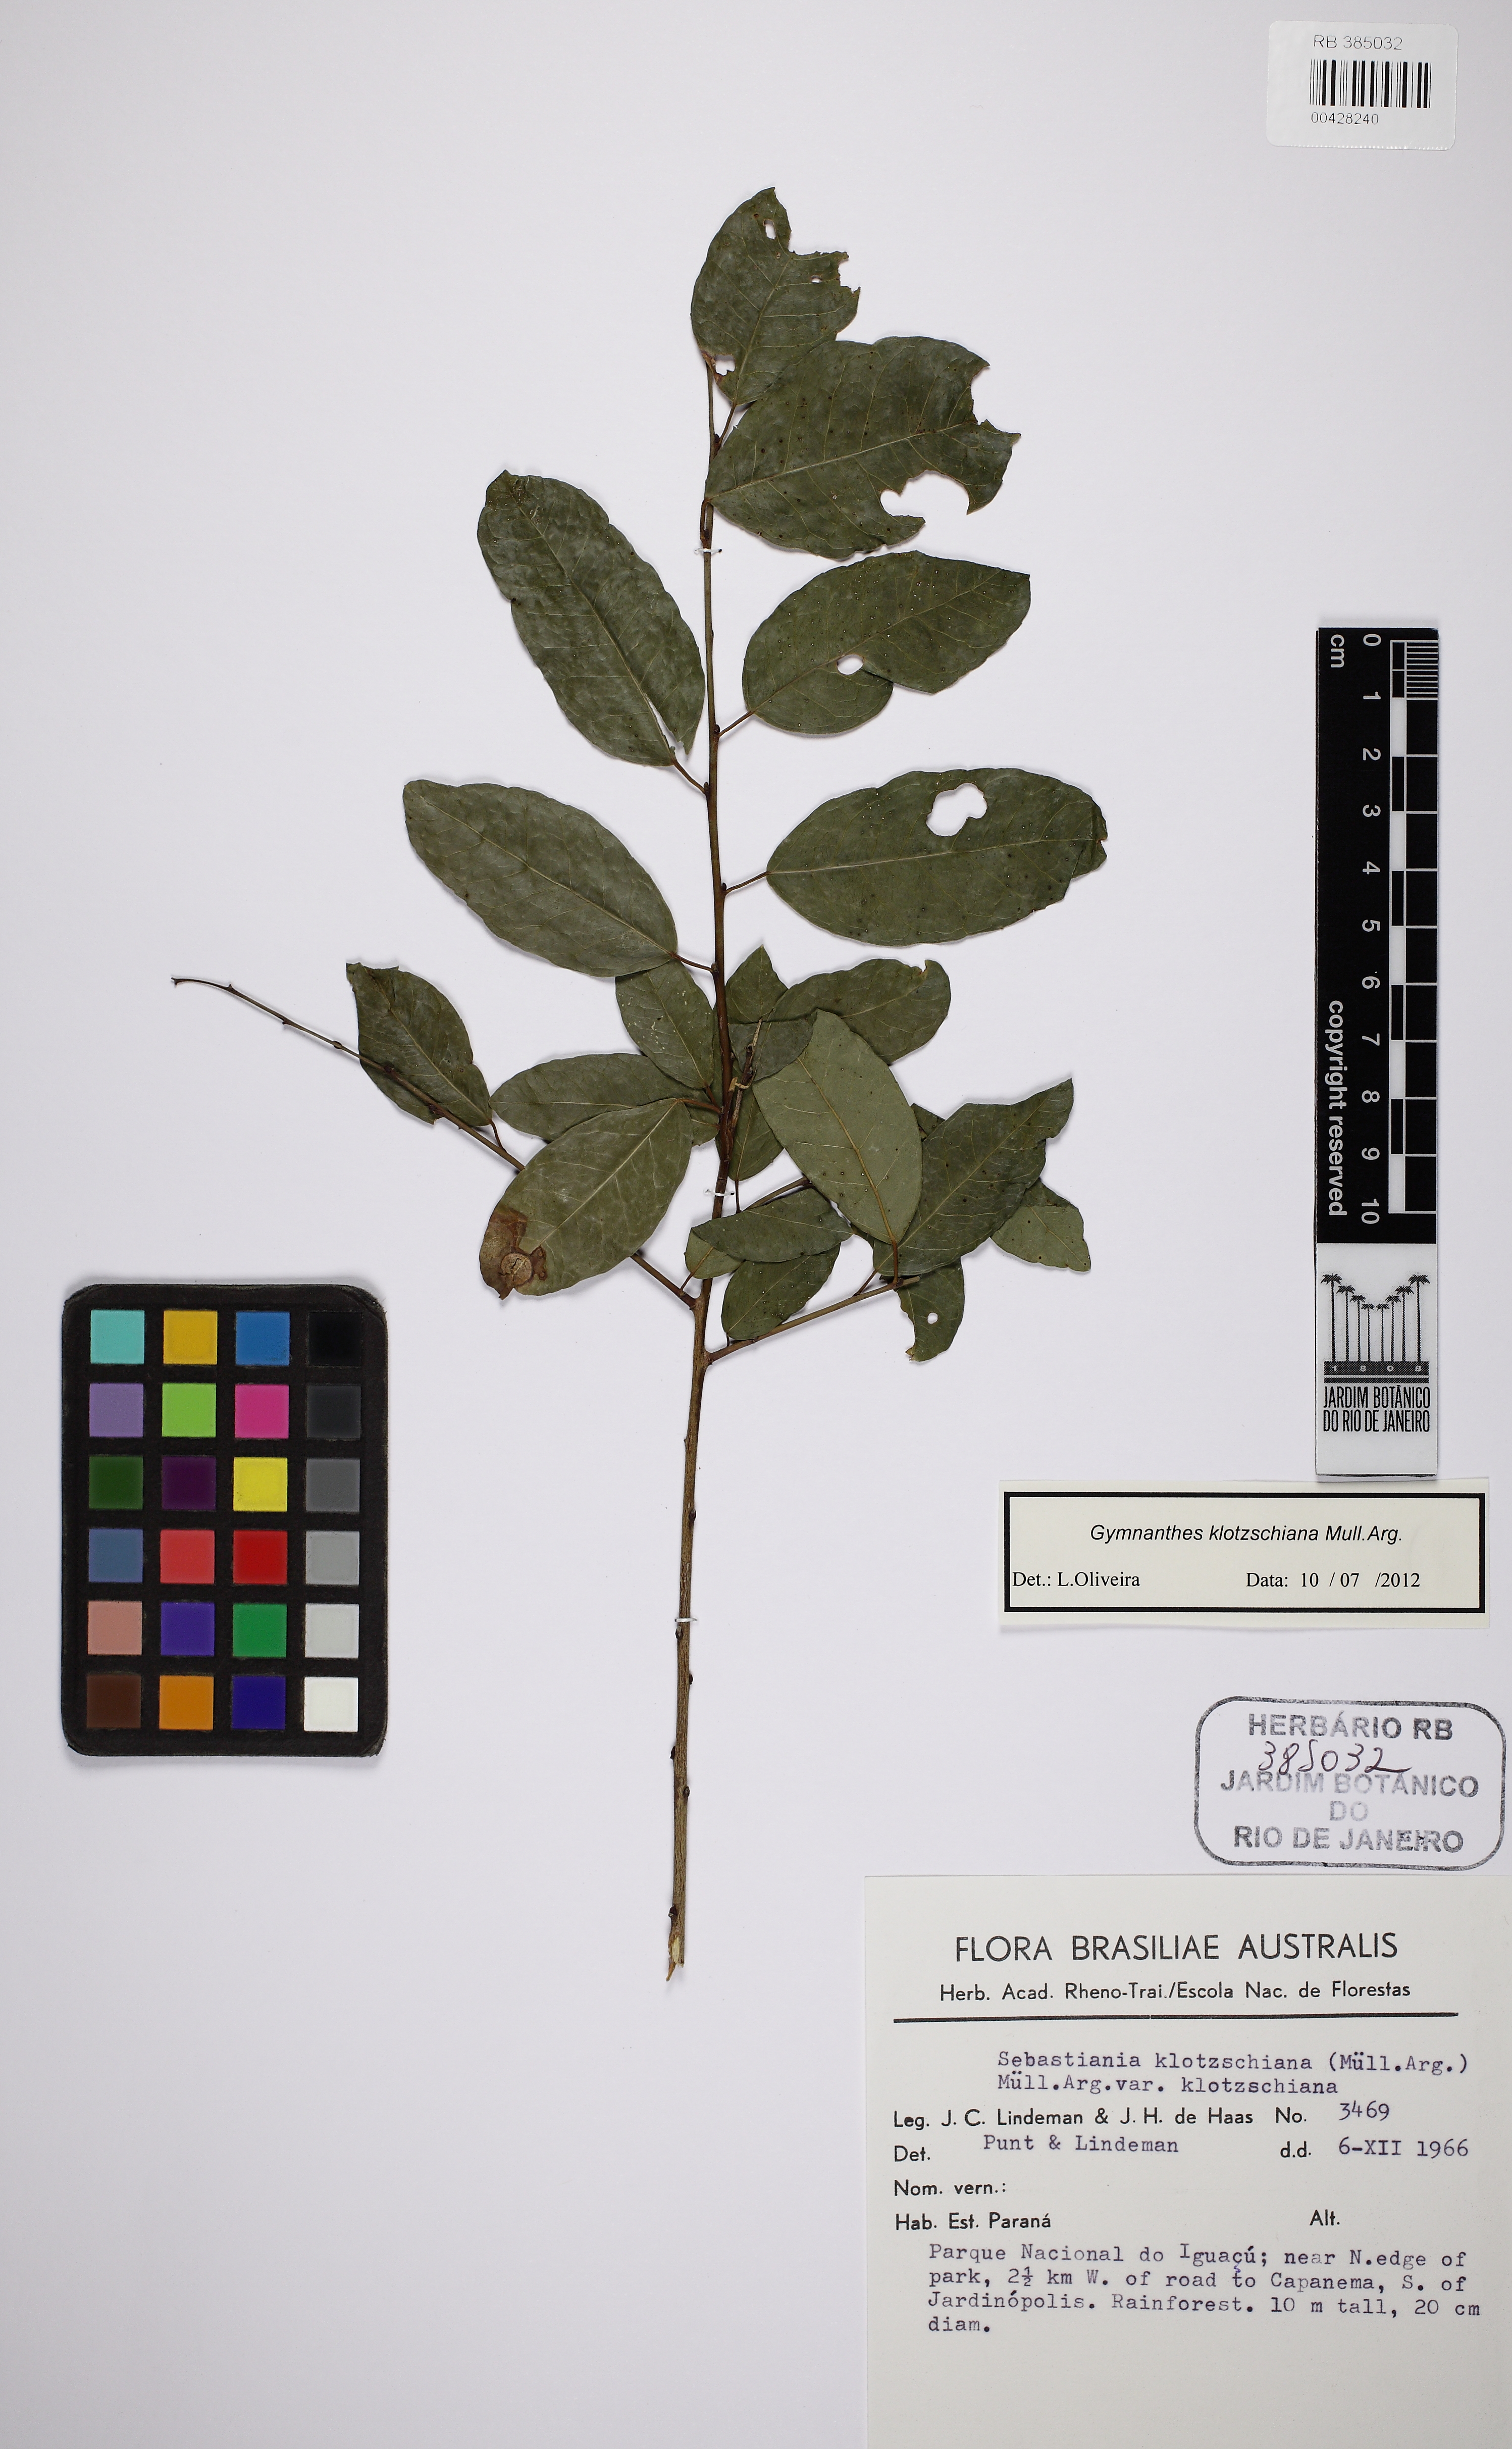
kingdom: Plantae
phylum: Tracheophyta
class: Magnoliopsida
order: Malpighiales
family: Euphorbiaceae
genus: Sebastiania
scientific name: Sebastiania serrata
